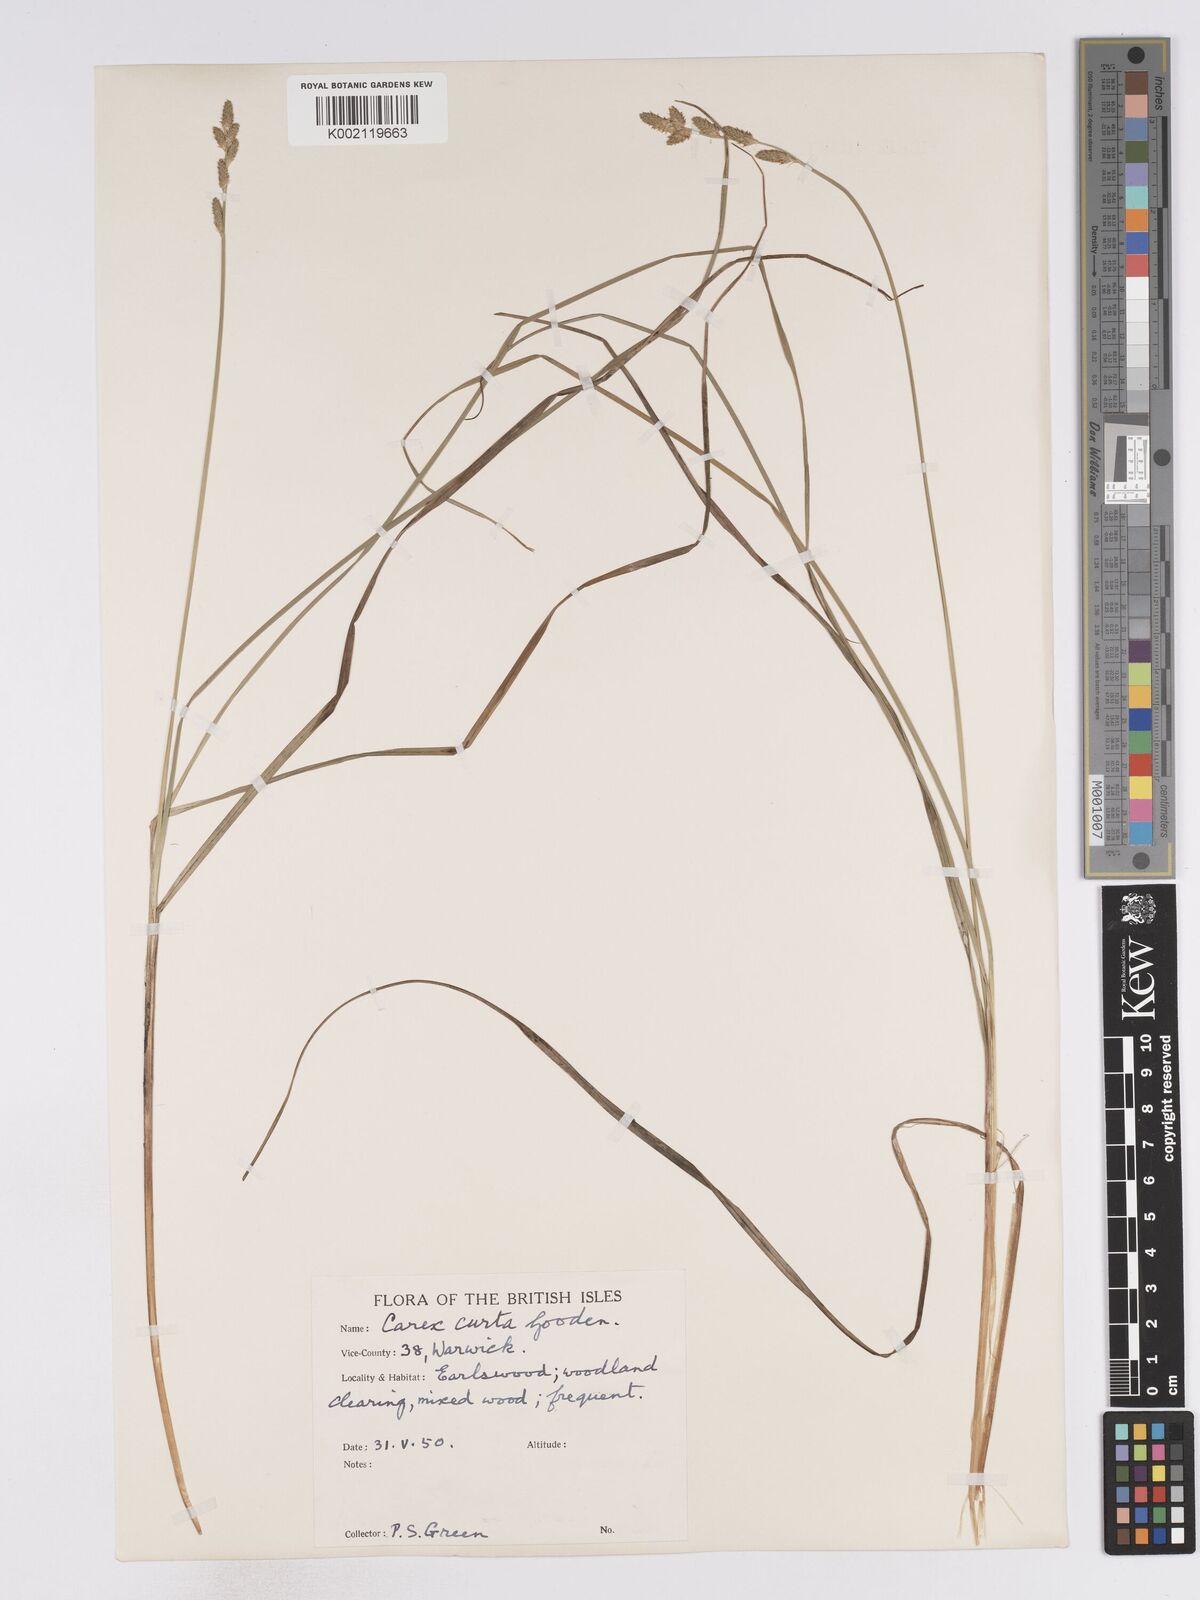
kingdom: Plantae
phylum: Tracheophyta
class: Liliopsida
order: Poales
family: Cyperaceae
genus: Carex
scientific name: Carex curta
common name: White sedge
